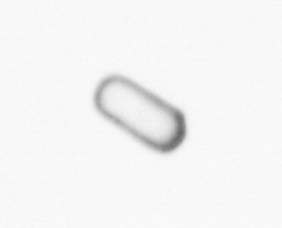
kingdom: Chromista
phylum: Ochrophyta
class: Bacillariophyceae
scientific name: Bacillariophyceae
